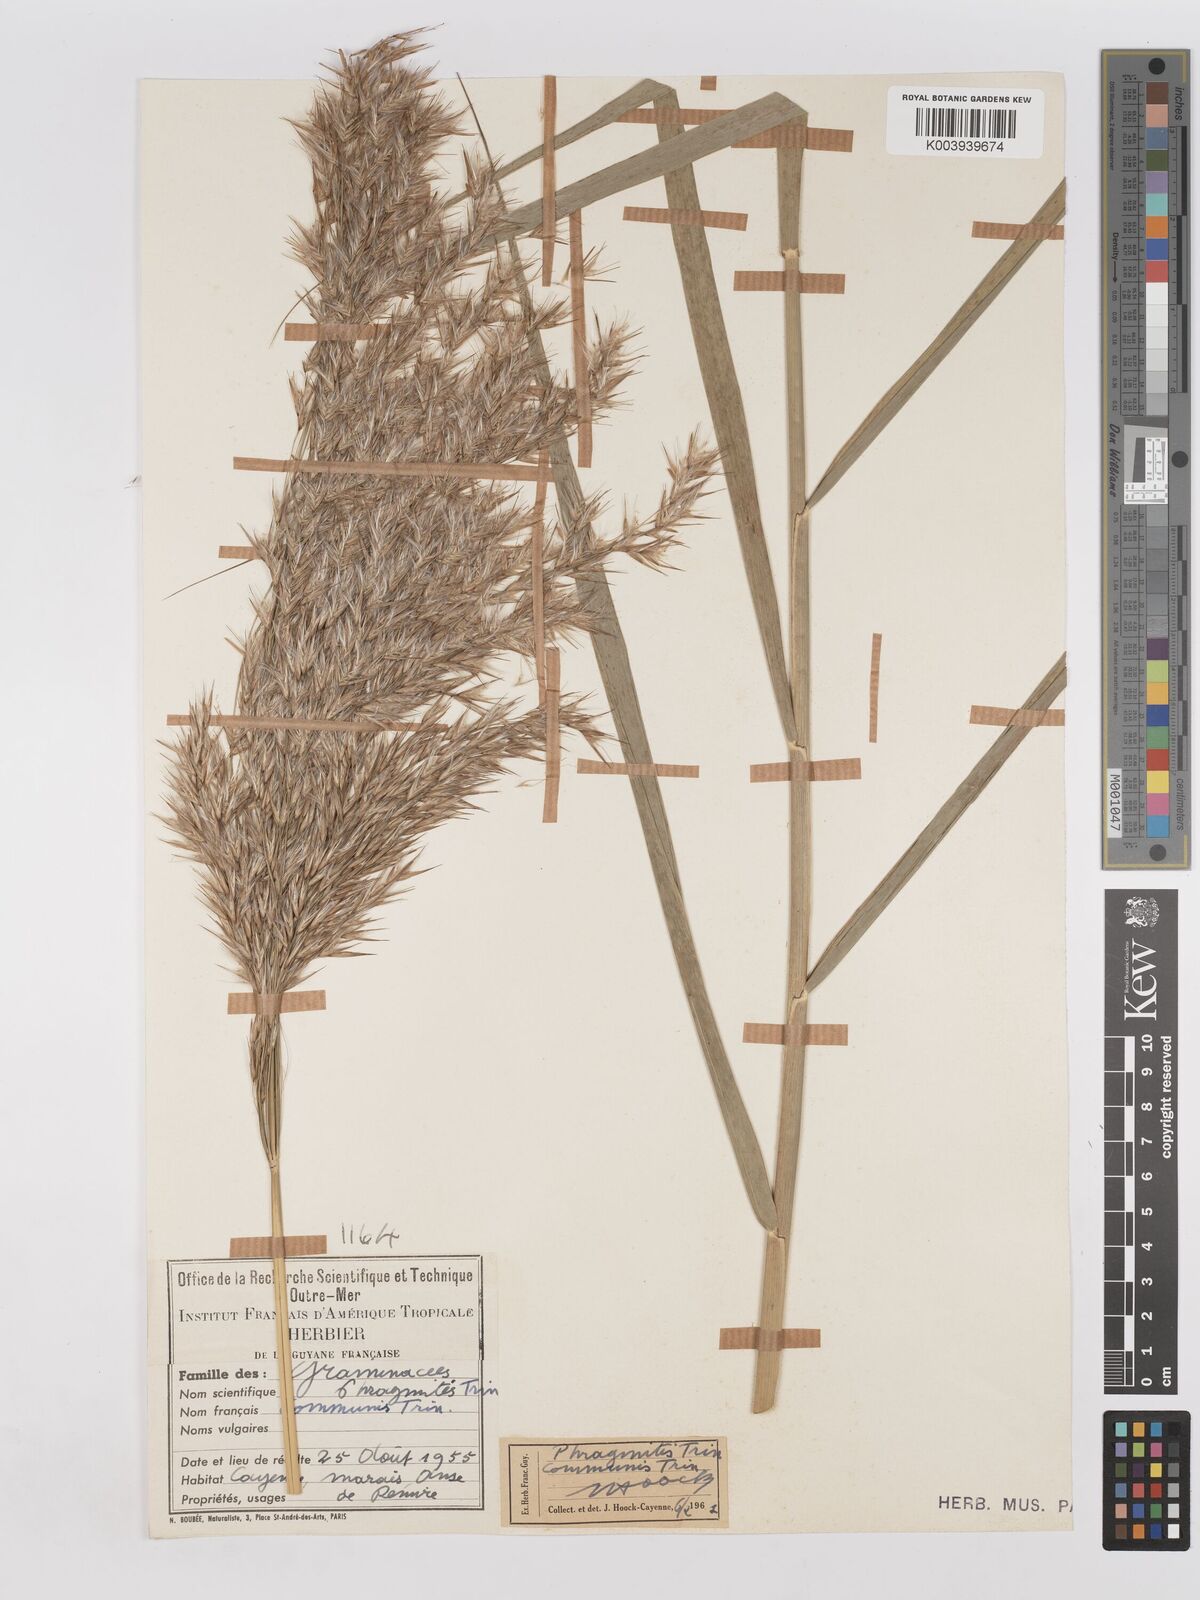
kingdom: Plantae
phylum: Tracheophyta
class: Liliopsida
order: Poales
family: Poaceae
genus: Phragmites
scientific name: Phragmites australis
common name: Common reed
